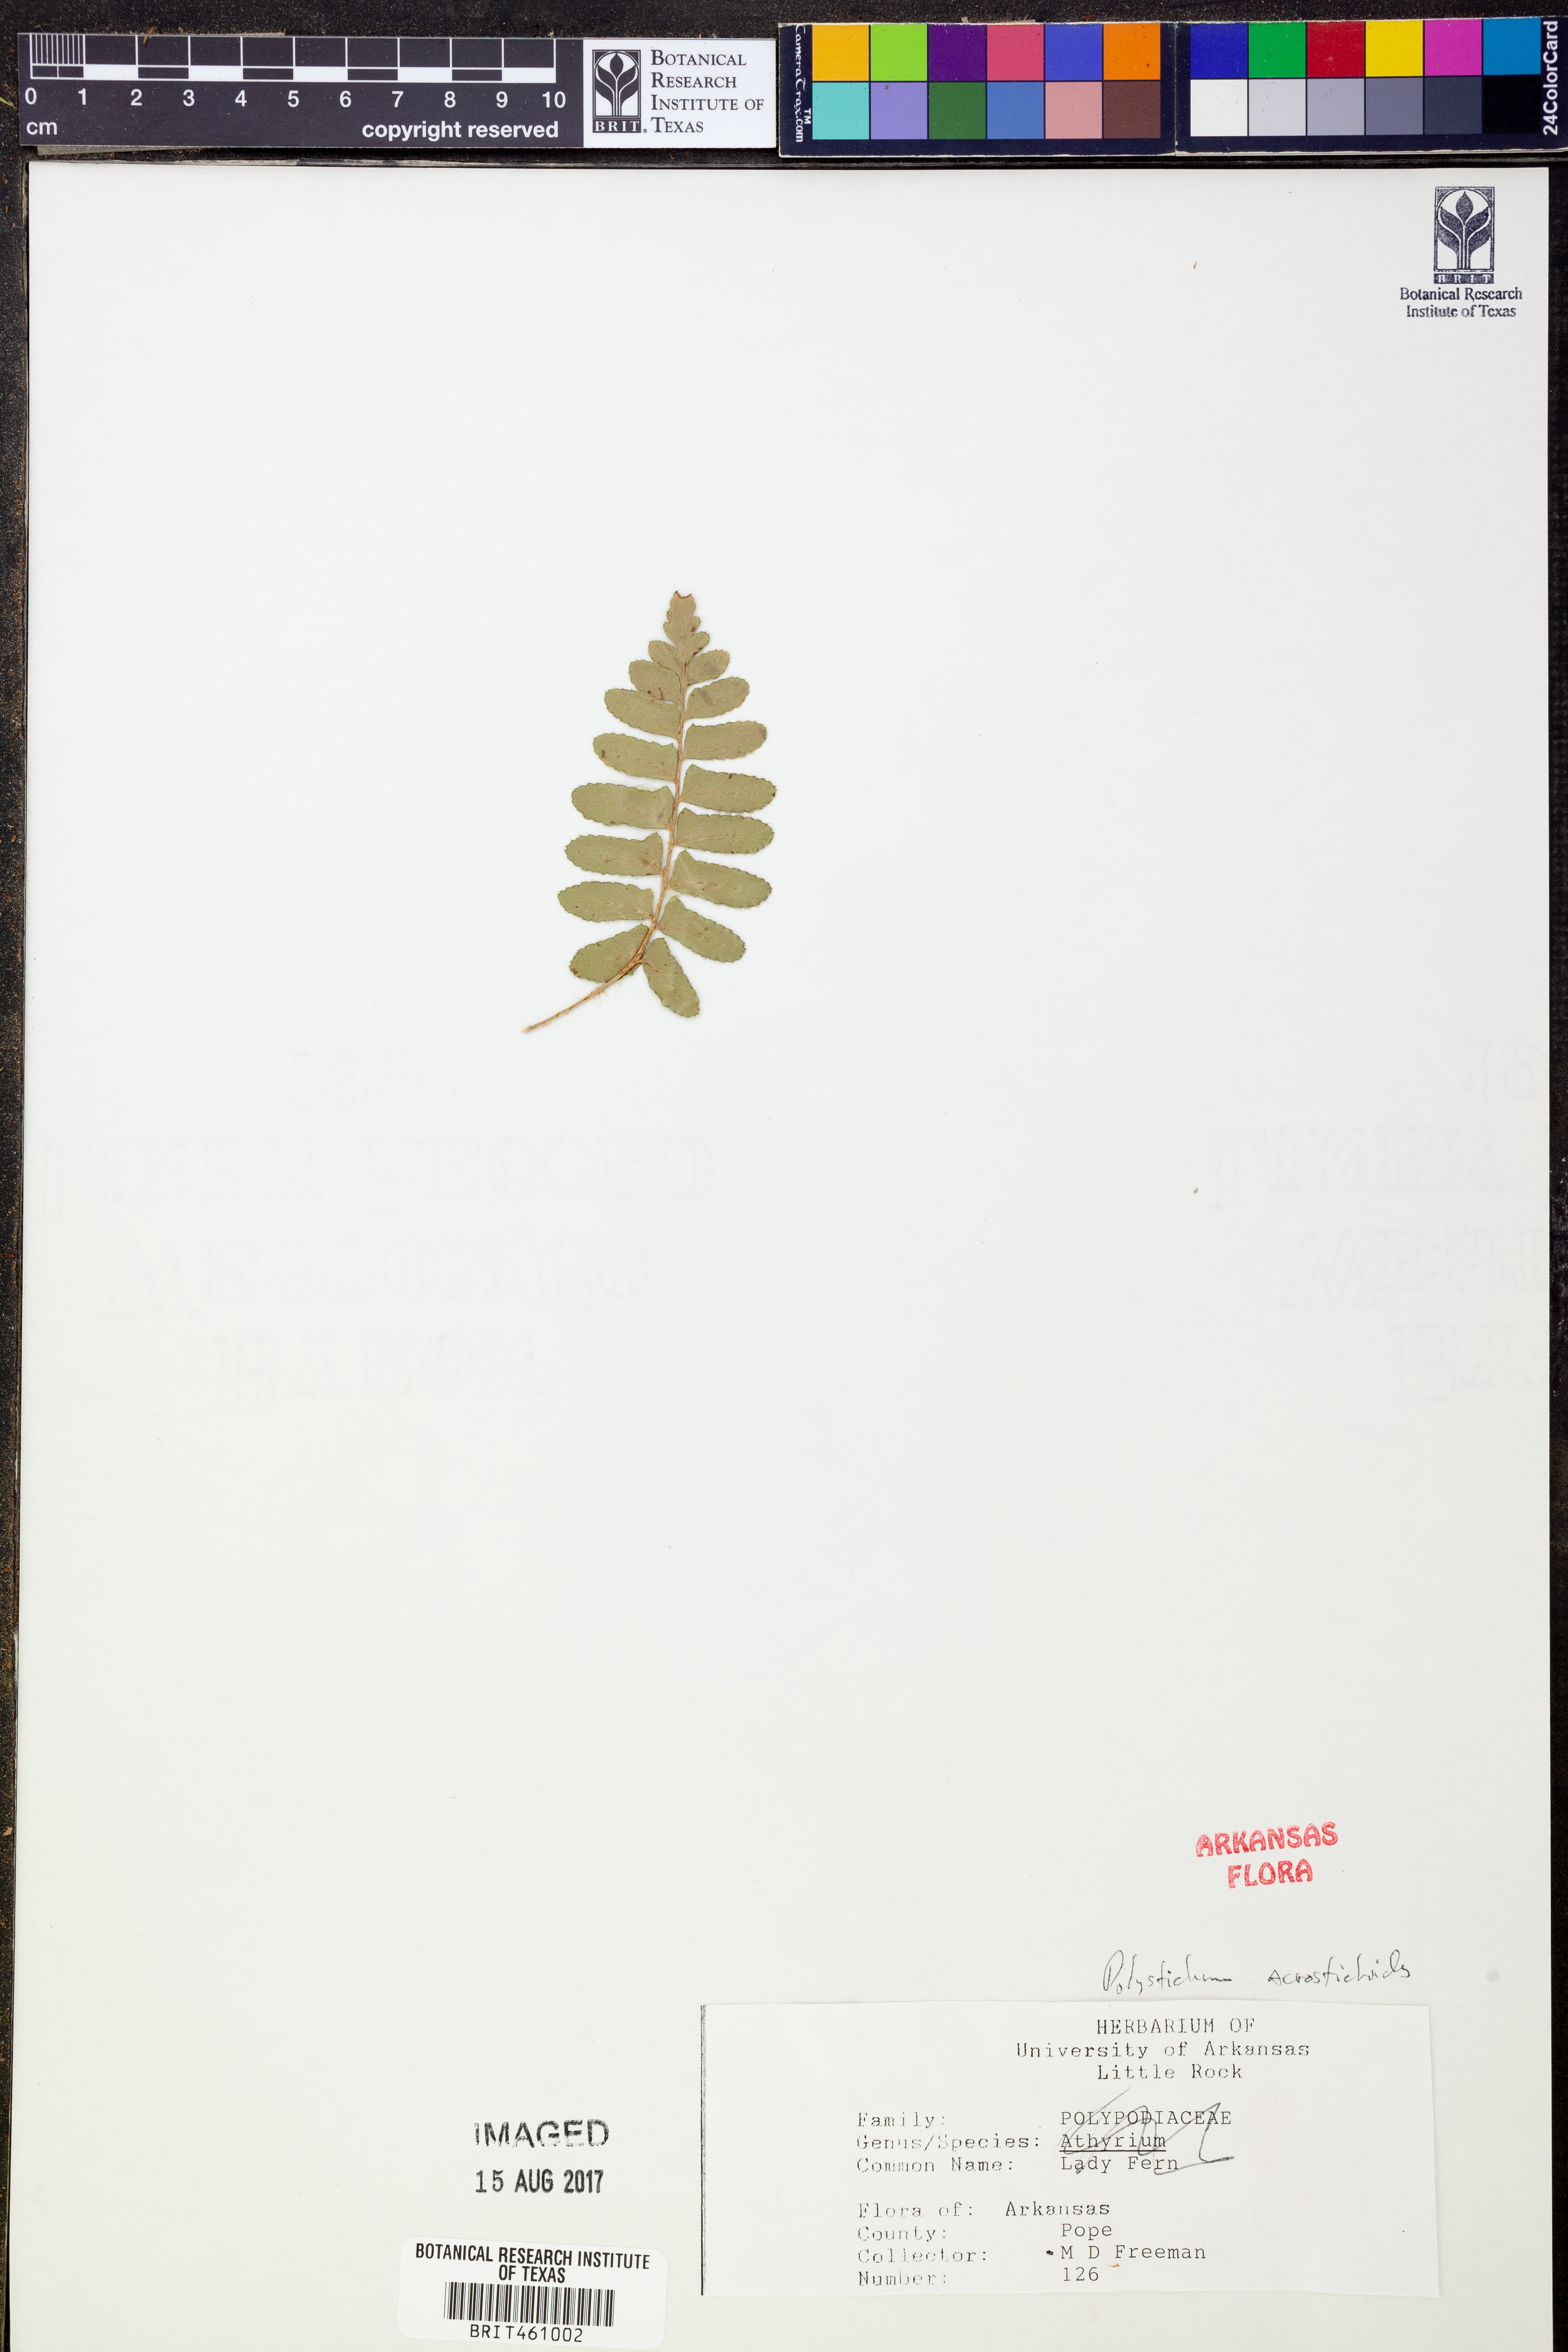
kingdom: Plantae
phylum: Tracheophyta
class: Polypodiopsida
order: Polypodiales
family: Dryopteridaceae
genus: Polystichum
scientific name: Polystichum acrostichoides
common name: Christmas fern
